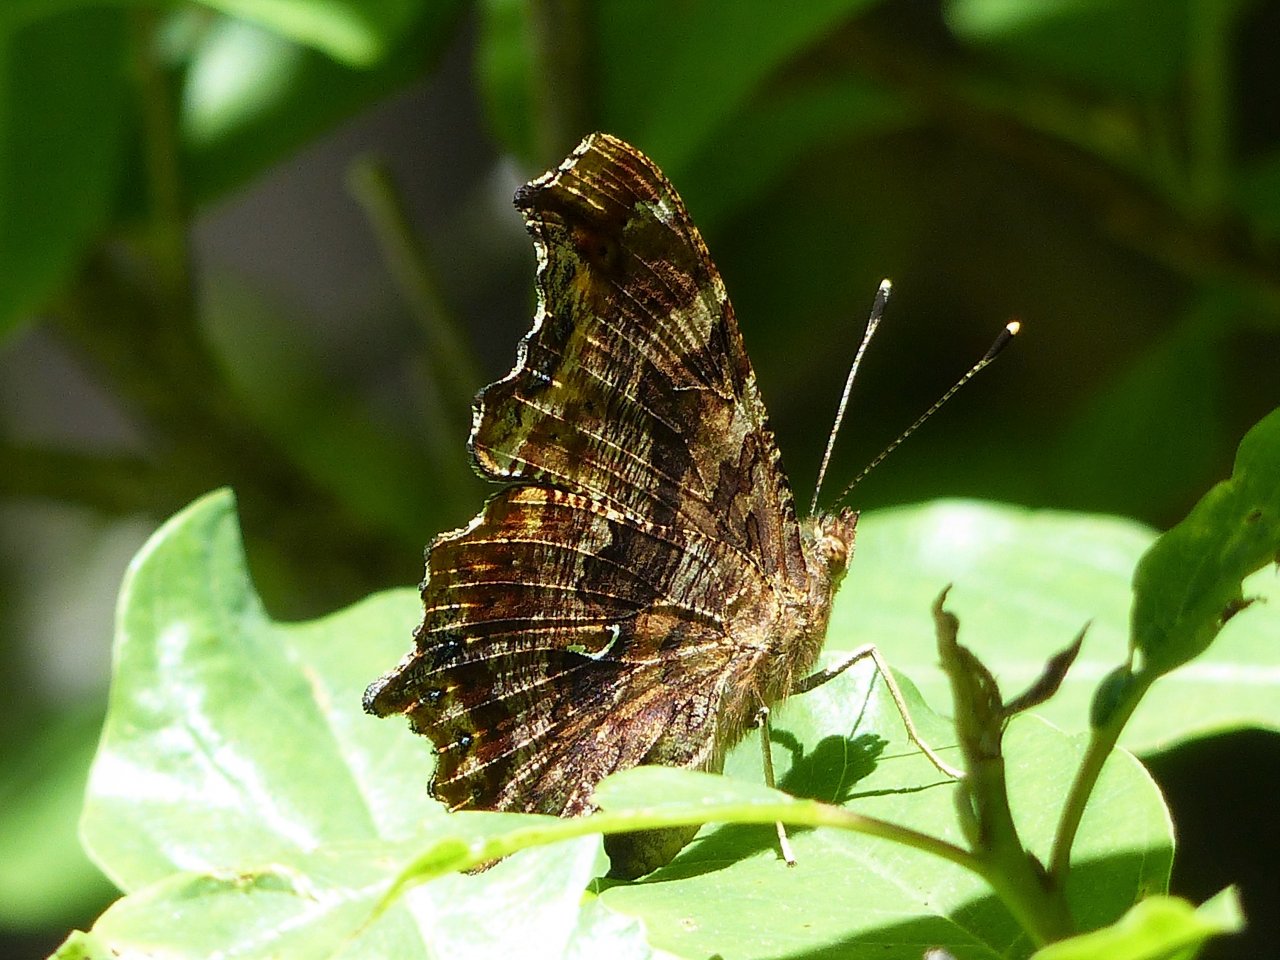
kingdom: Animalia
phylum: Arthropoda
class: Insecta
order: Lepidoptera
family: Nymphalidae
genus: Polygonia
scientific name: Polygonia comma
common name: Eastern Comma
